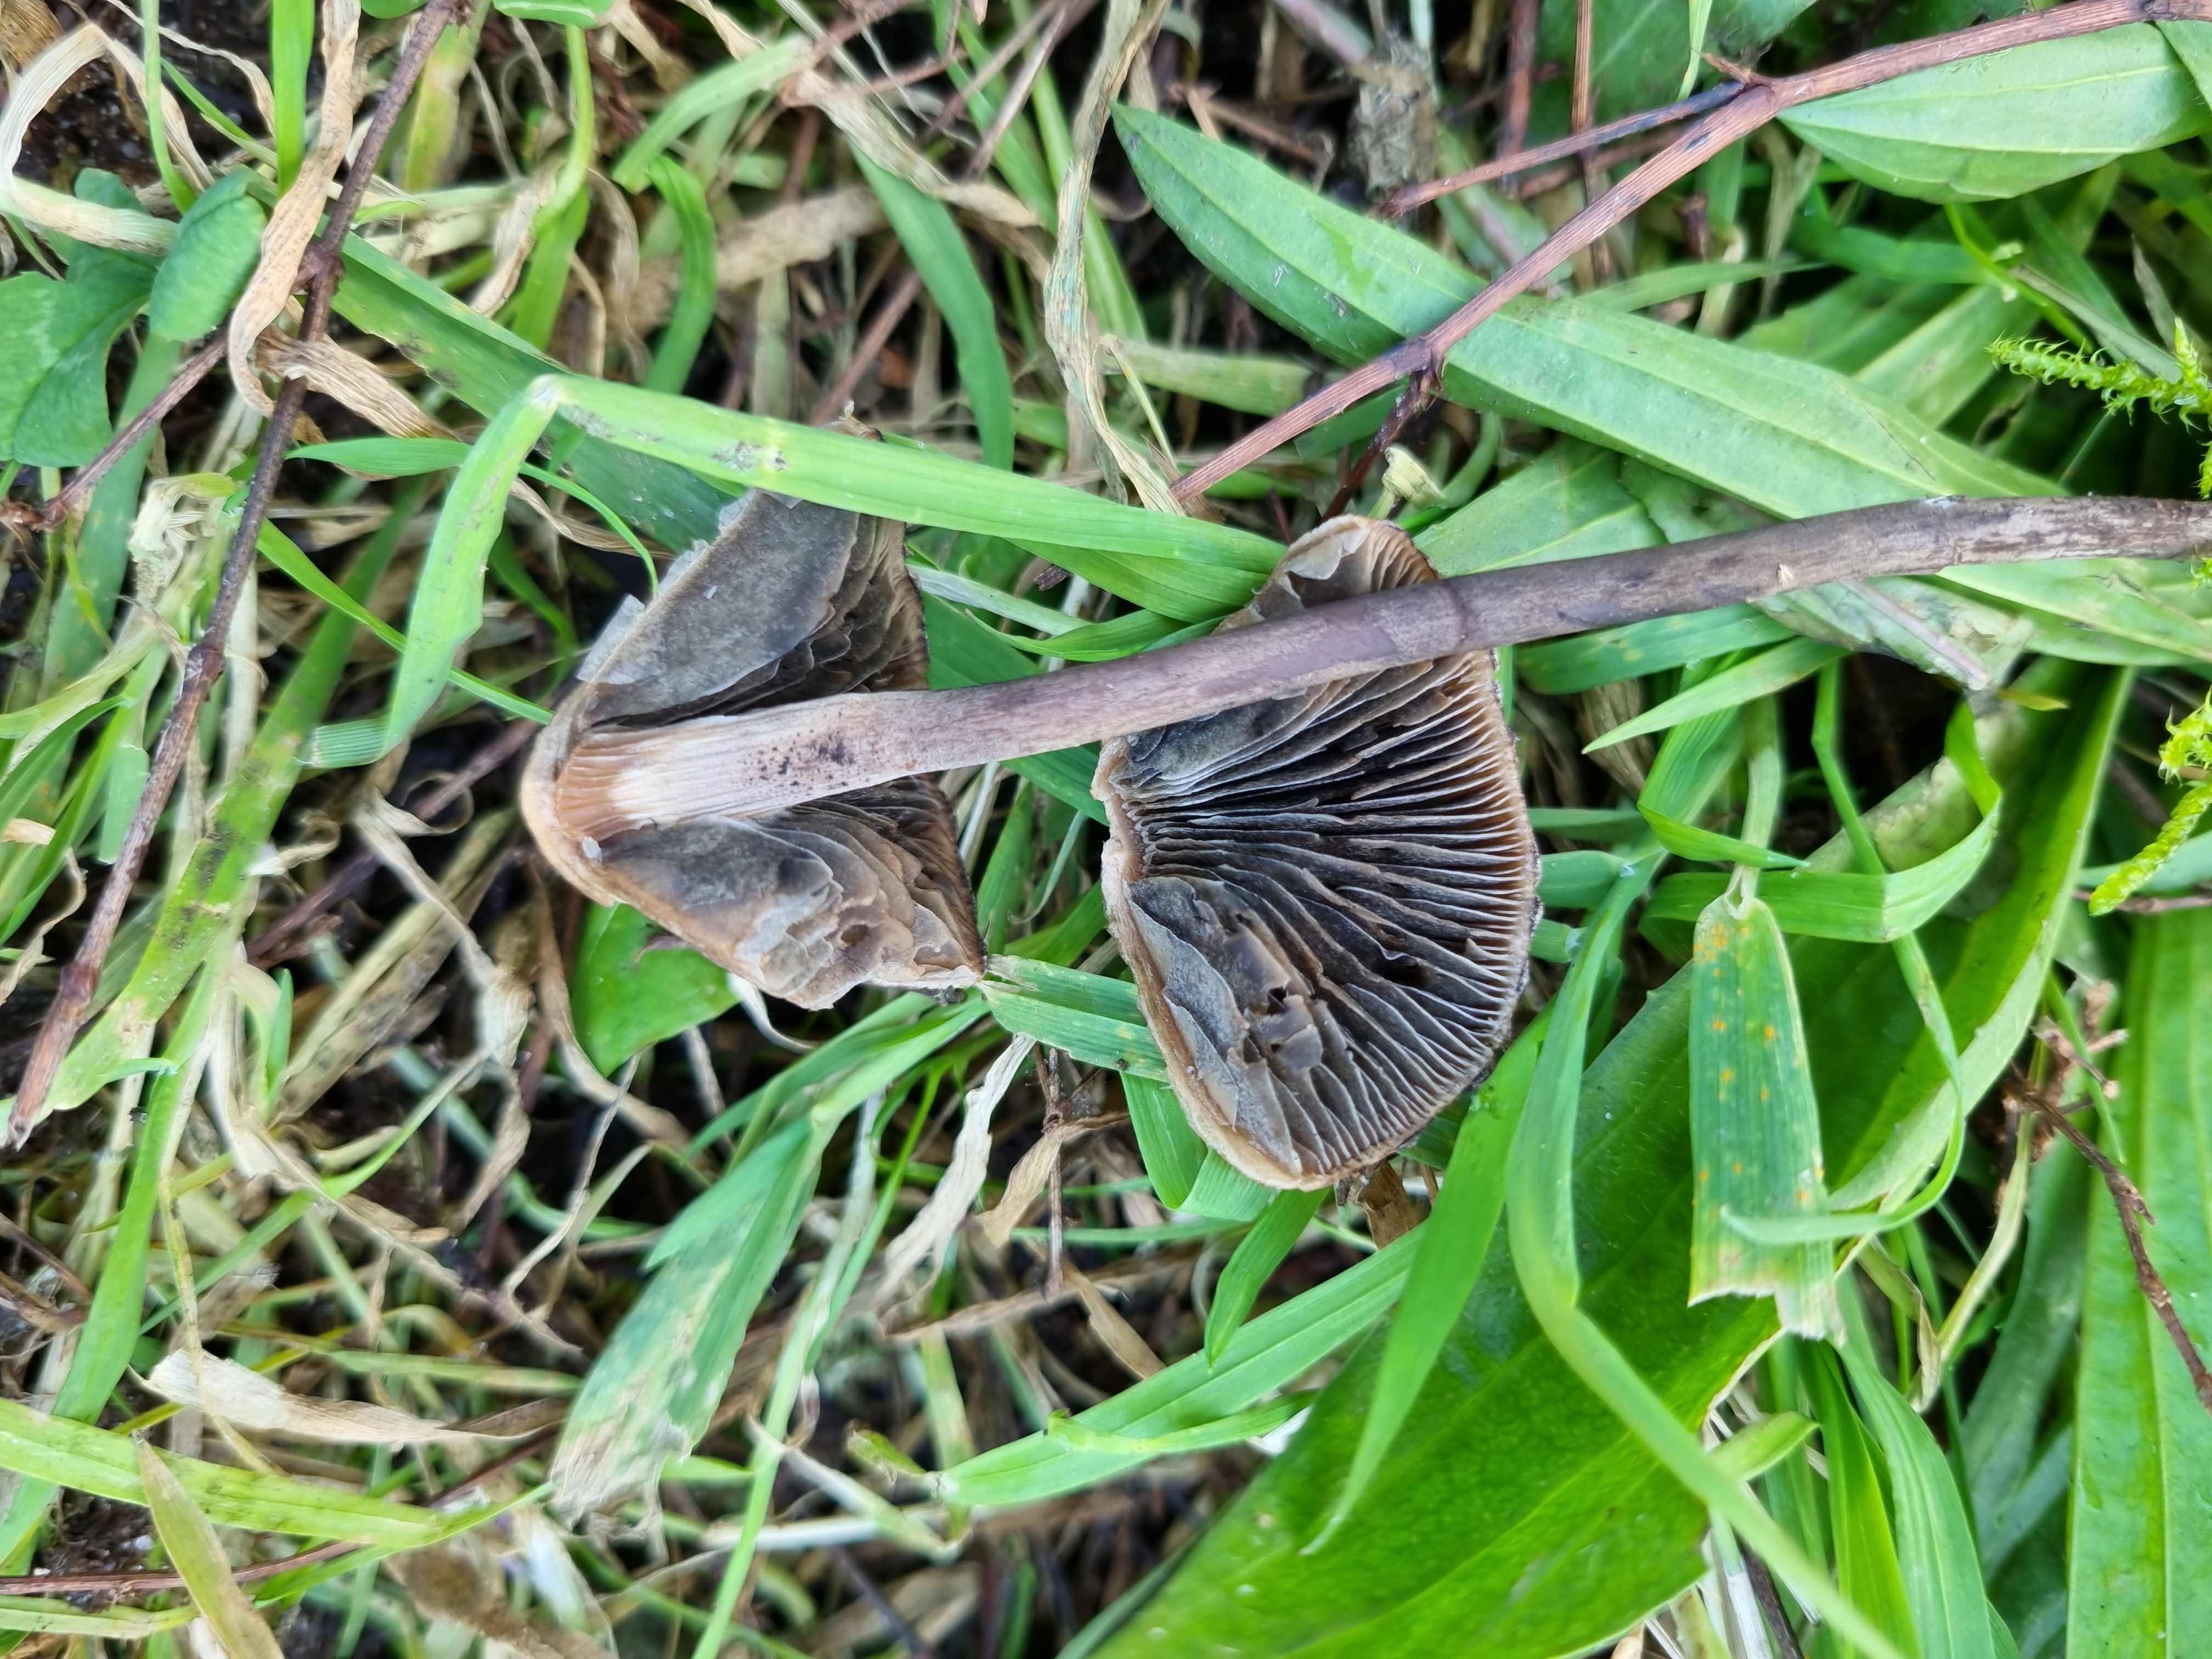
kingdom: Fungi
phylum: Basidiomycota
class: Agaricomycetes
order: Agaricales
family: Bolbitiaceae
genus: Panaeolus
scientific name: Panaeolus
